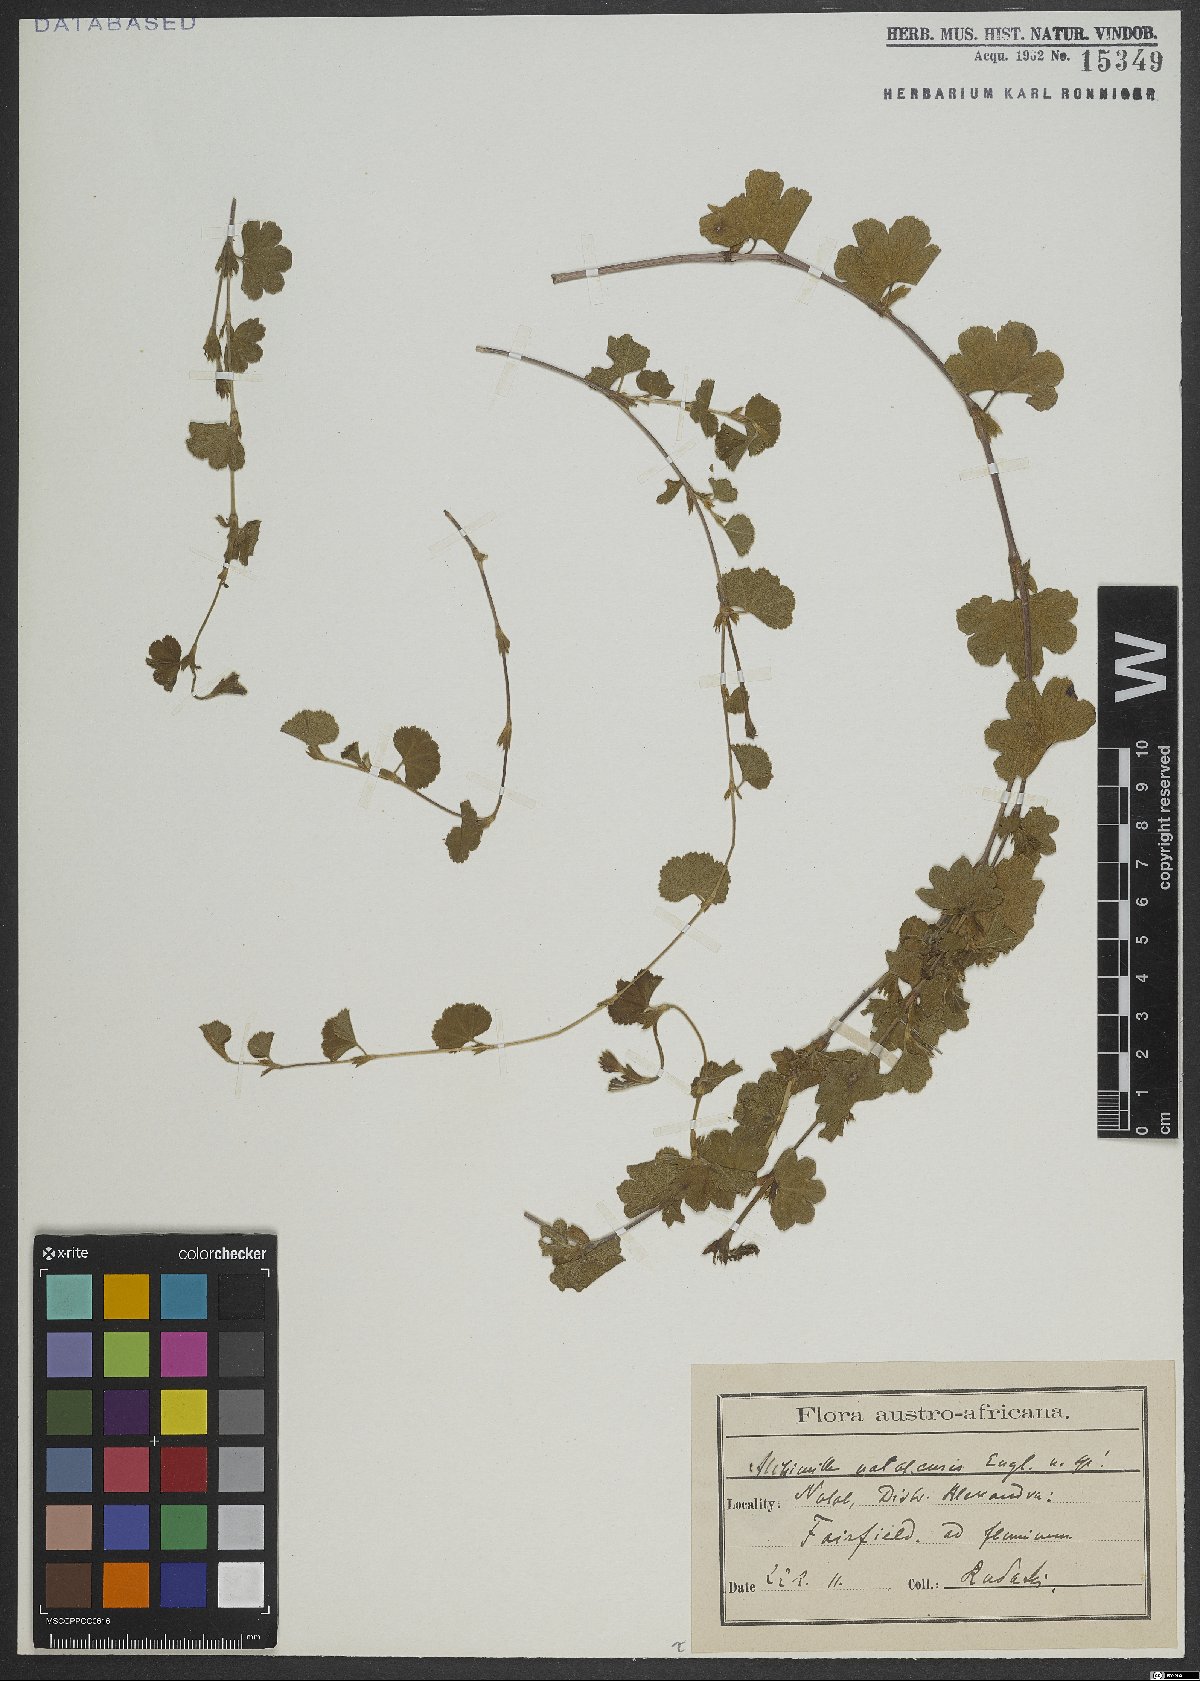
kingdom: Plantae
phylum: Tracheophyta
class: Magnoliopsida
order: Rosales
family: Rosaceae
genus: Alchemilla
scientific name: Alchemilla natalensis
